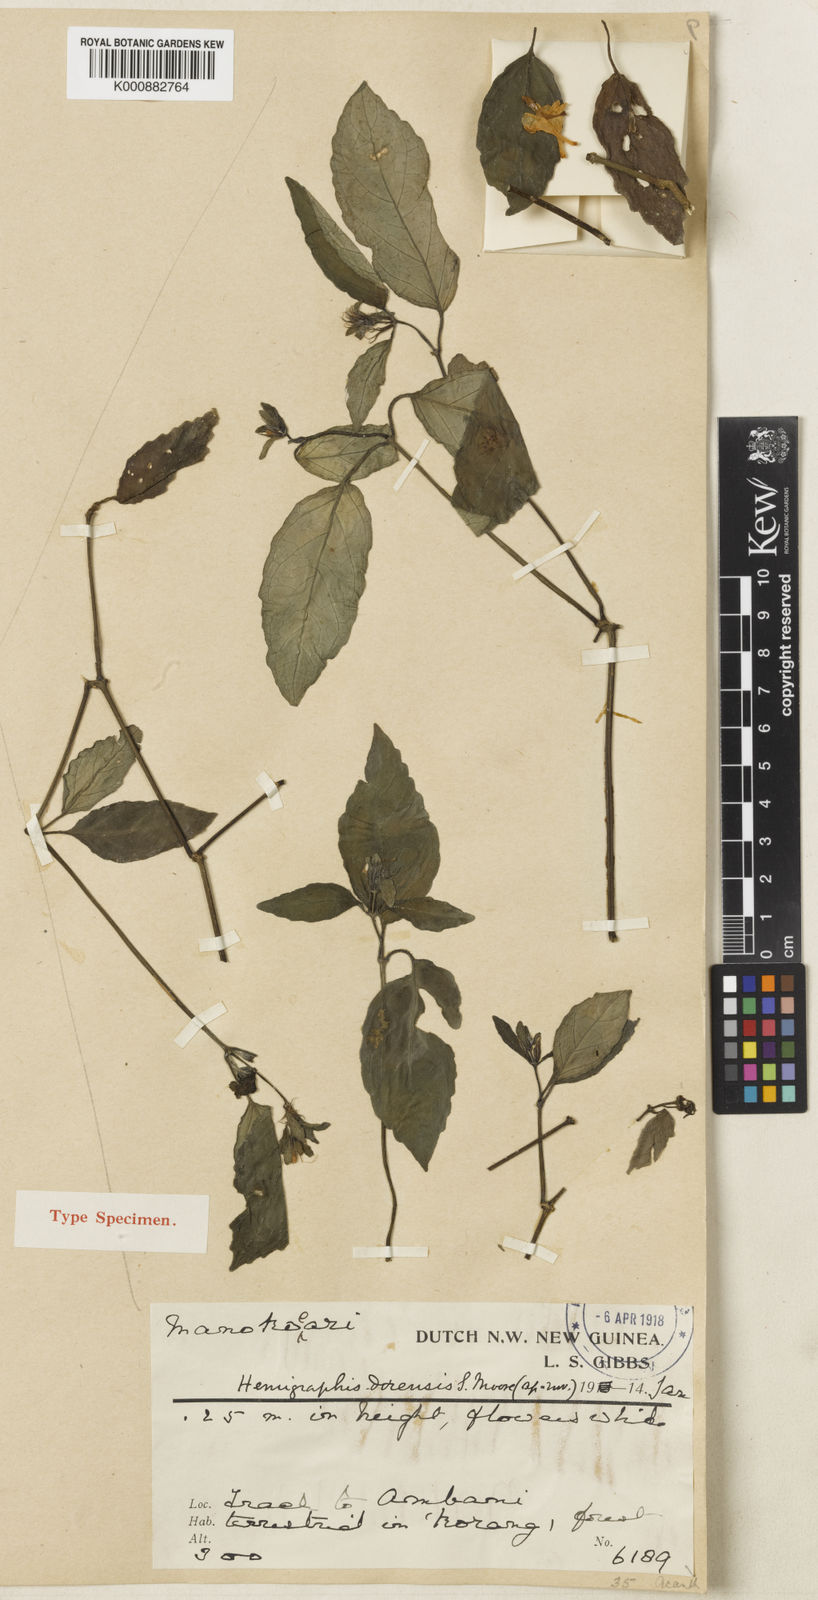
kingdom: Plantae
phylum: Tracheophyta
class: Magnoliopsida
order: Lamiales
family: Acanthaceae
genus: Hemigraphis
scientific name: Hemigraphis dorensis
